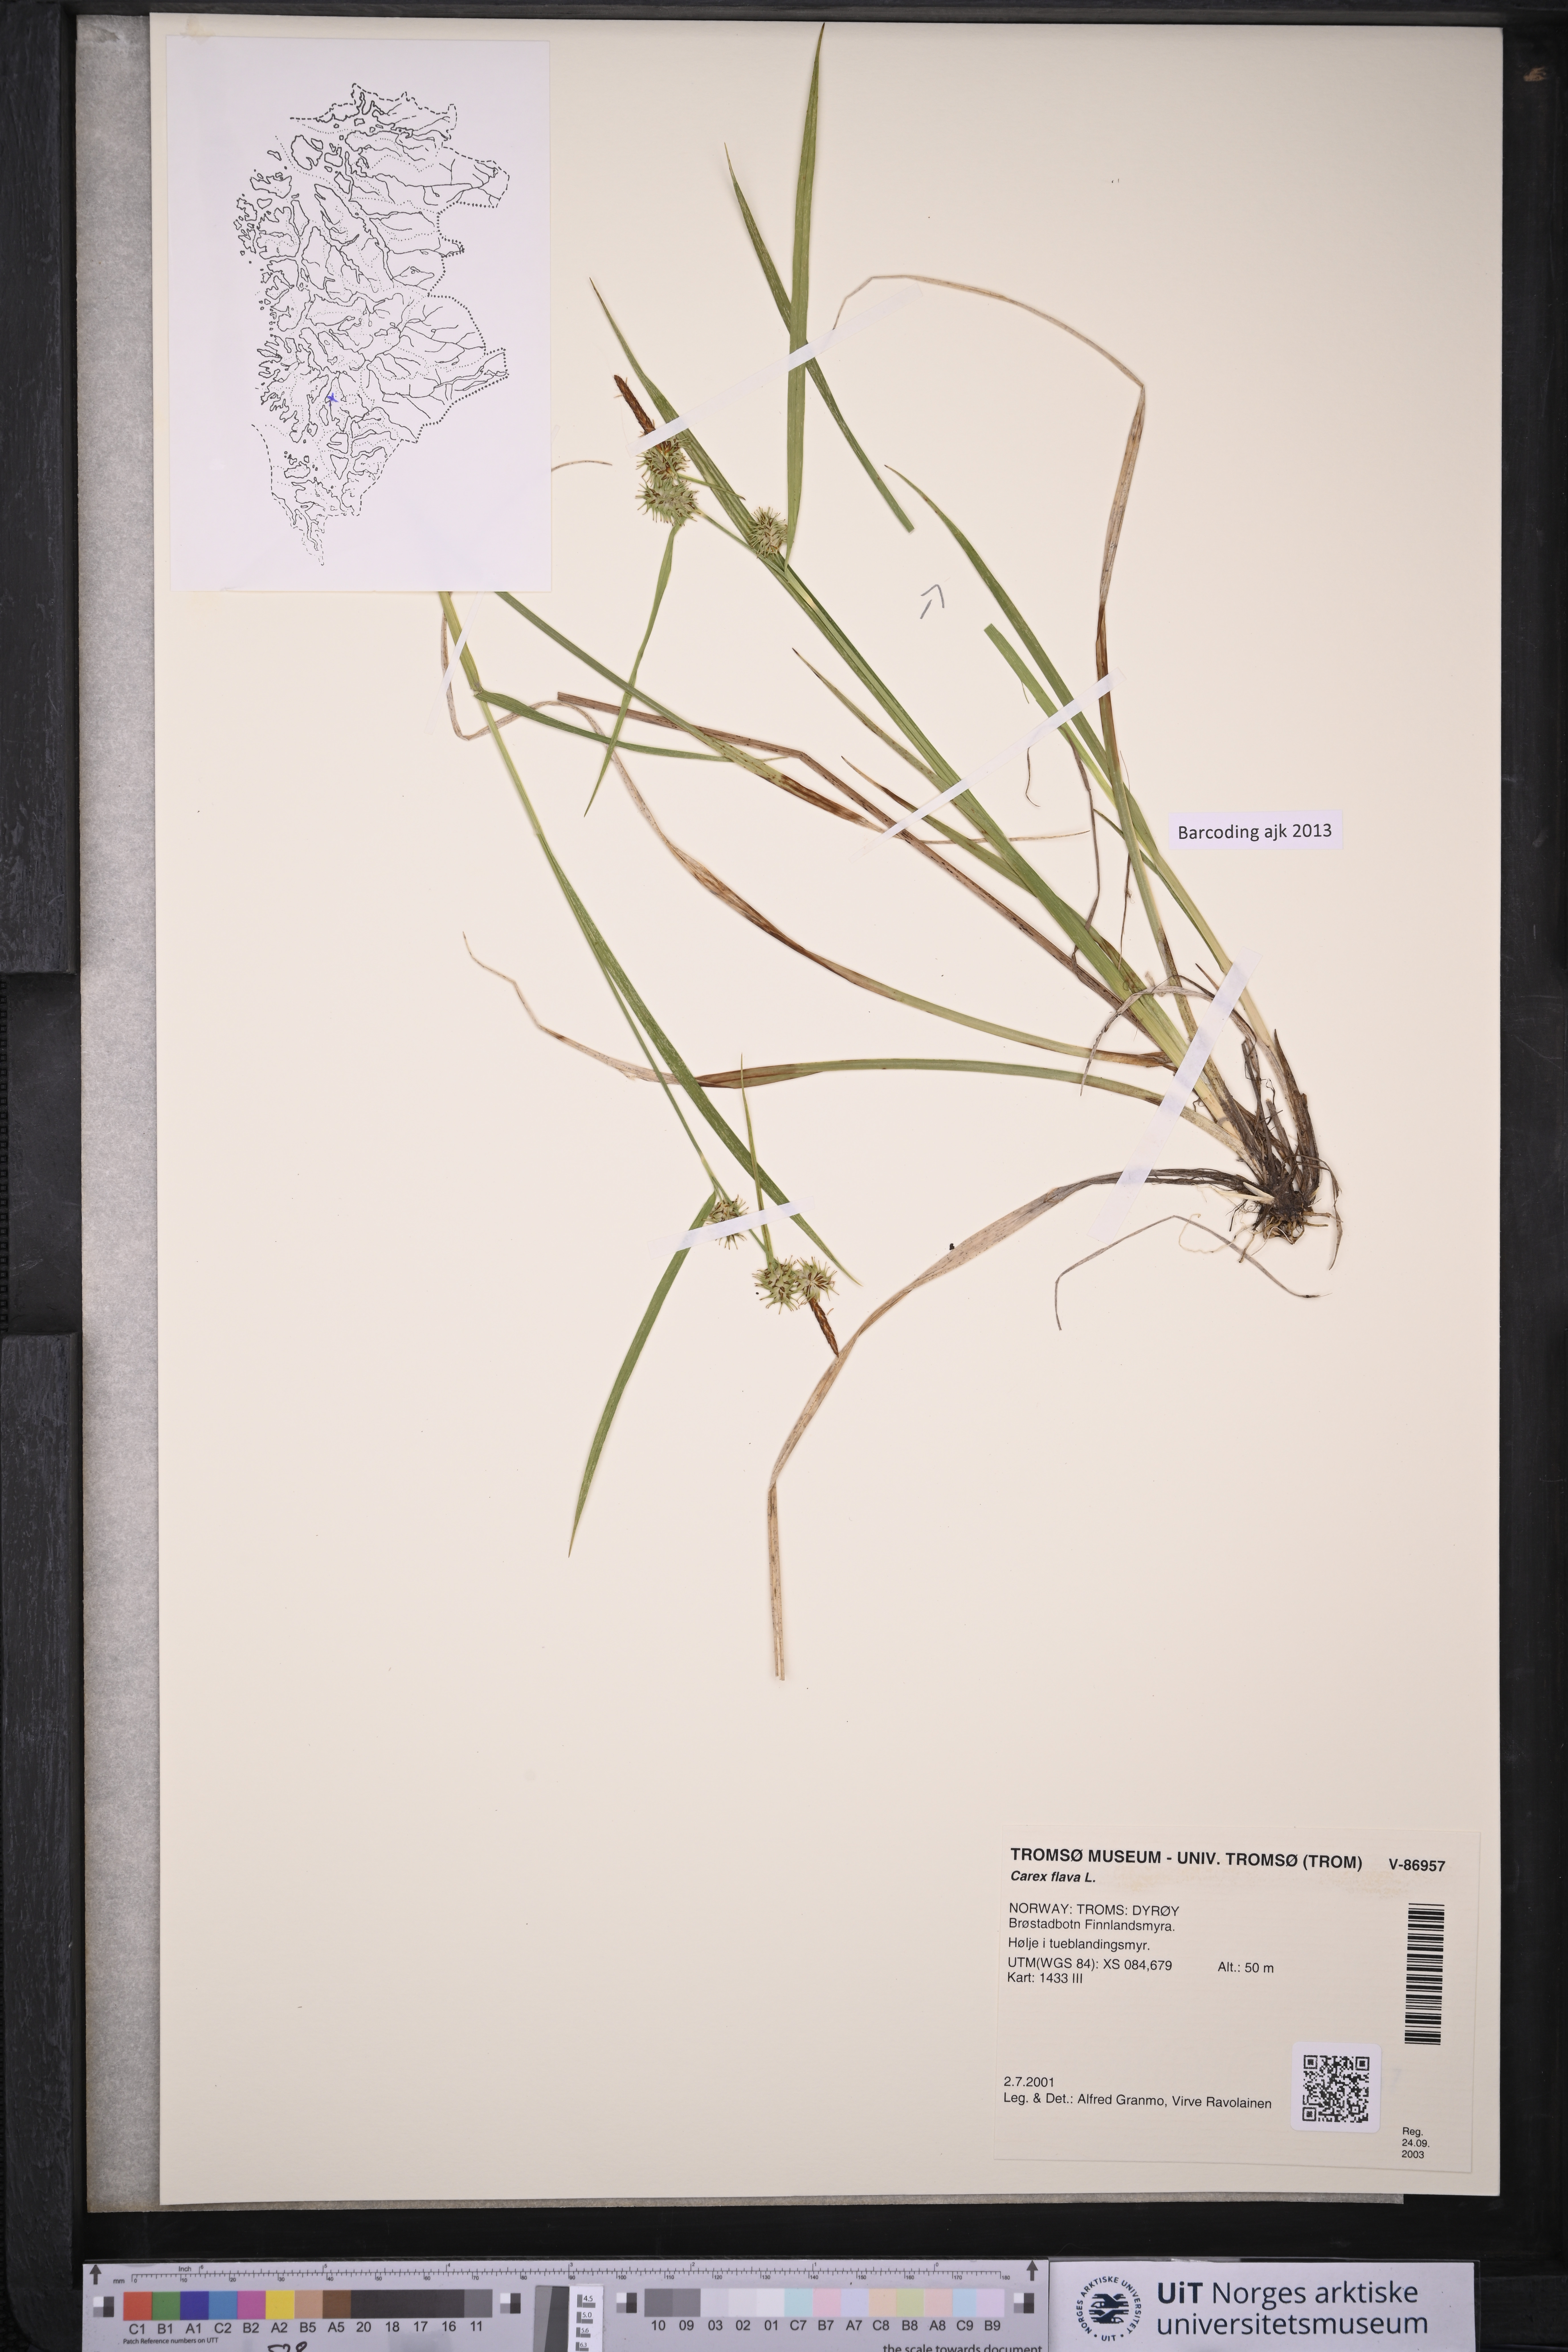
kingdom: Plantae
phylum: Tracheophyta
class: Liliopsida
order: Poales
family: Cyperaceae
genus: Carex
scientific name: Carex flava
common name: Large yellow-sedge
